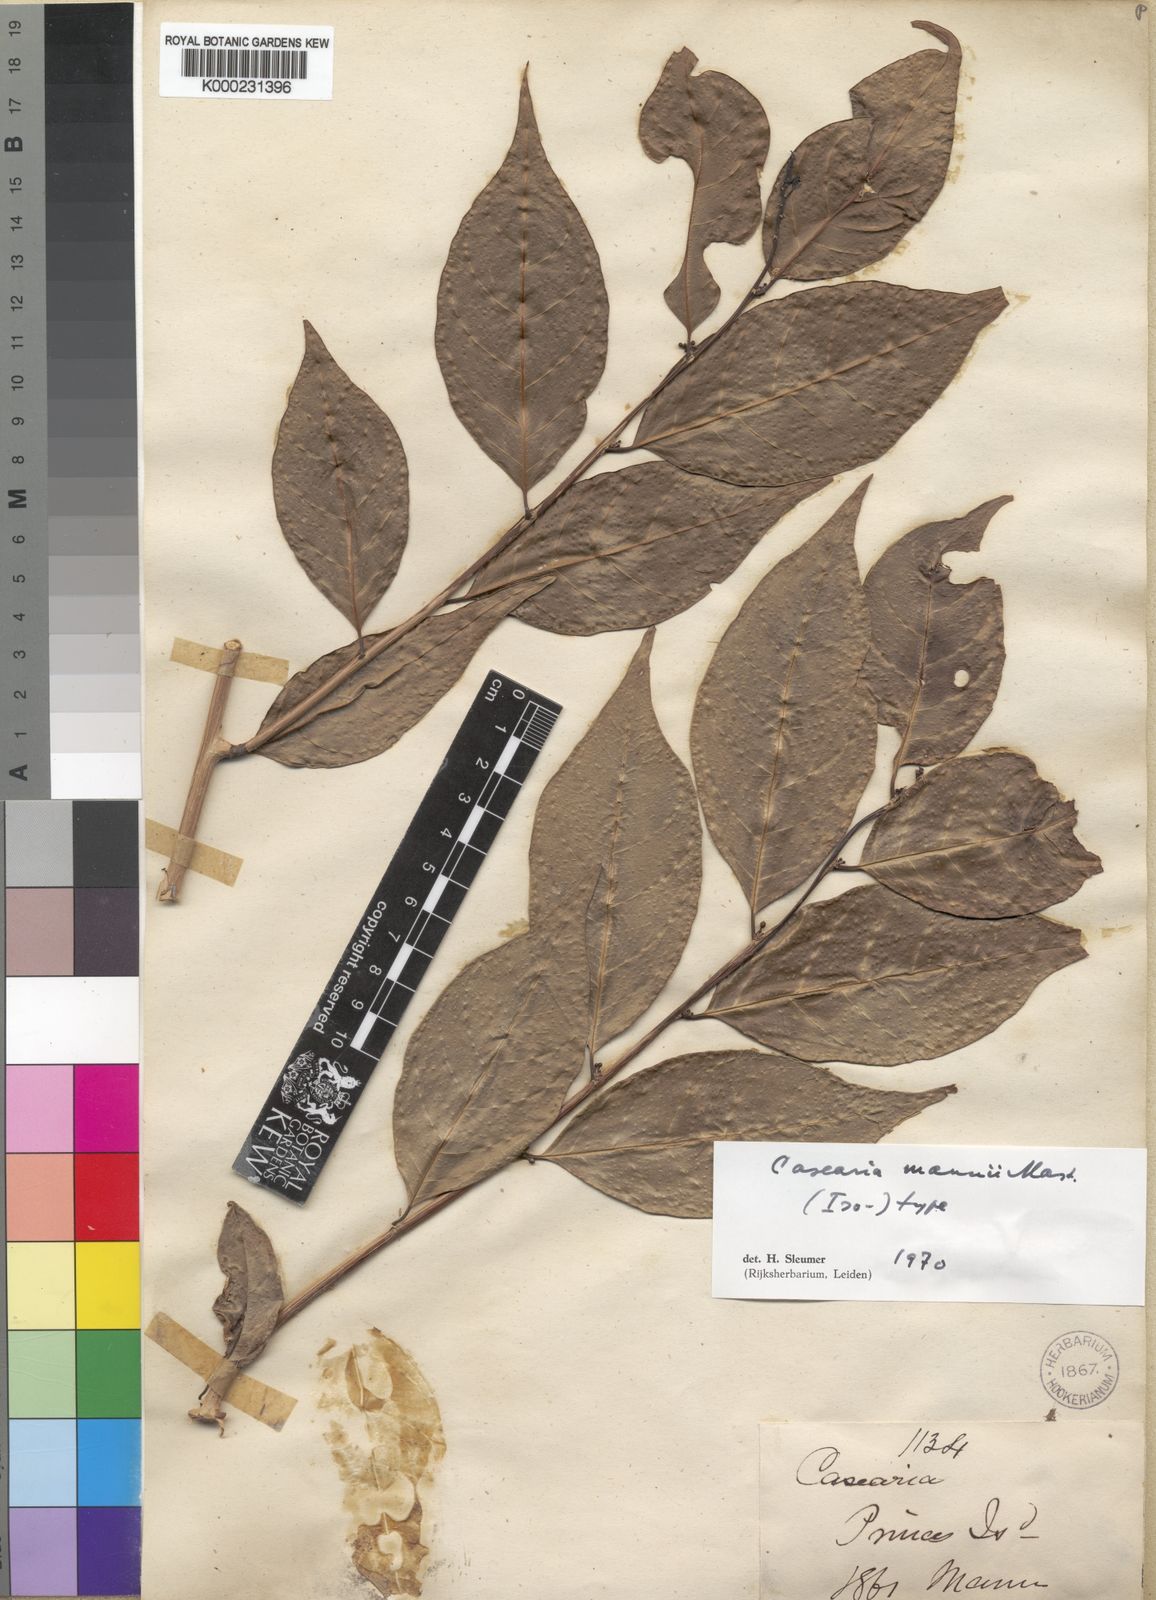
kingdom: Plantae
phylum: Tracheophyta
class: Magnoliopsida
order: Malpighiales
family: Salicaceae
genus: Casearia
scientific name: Casearia mannii
